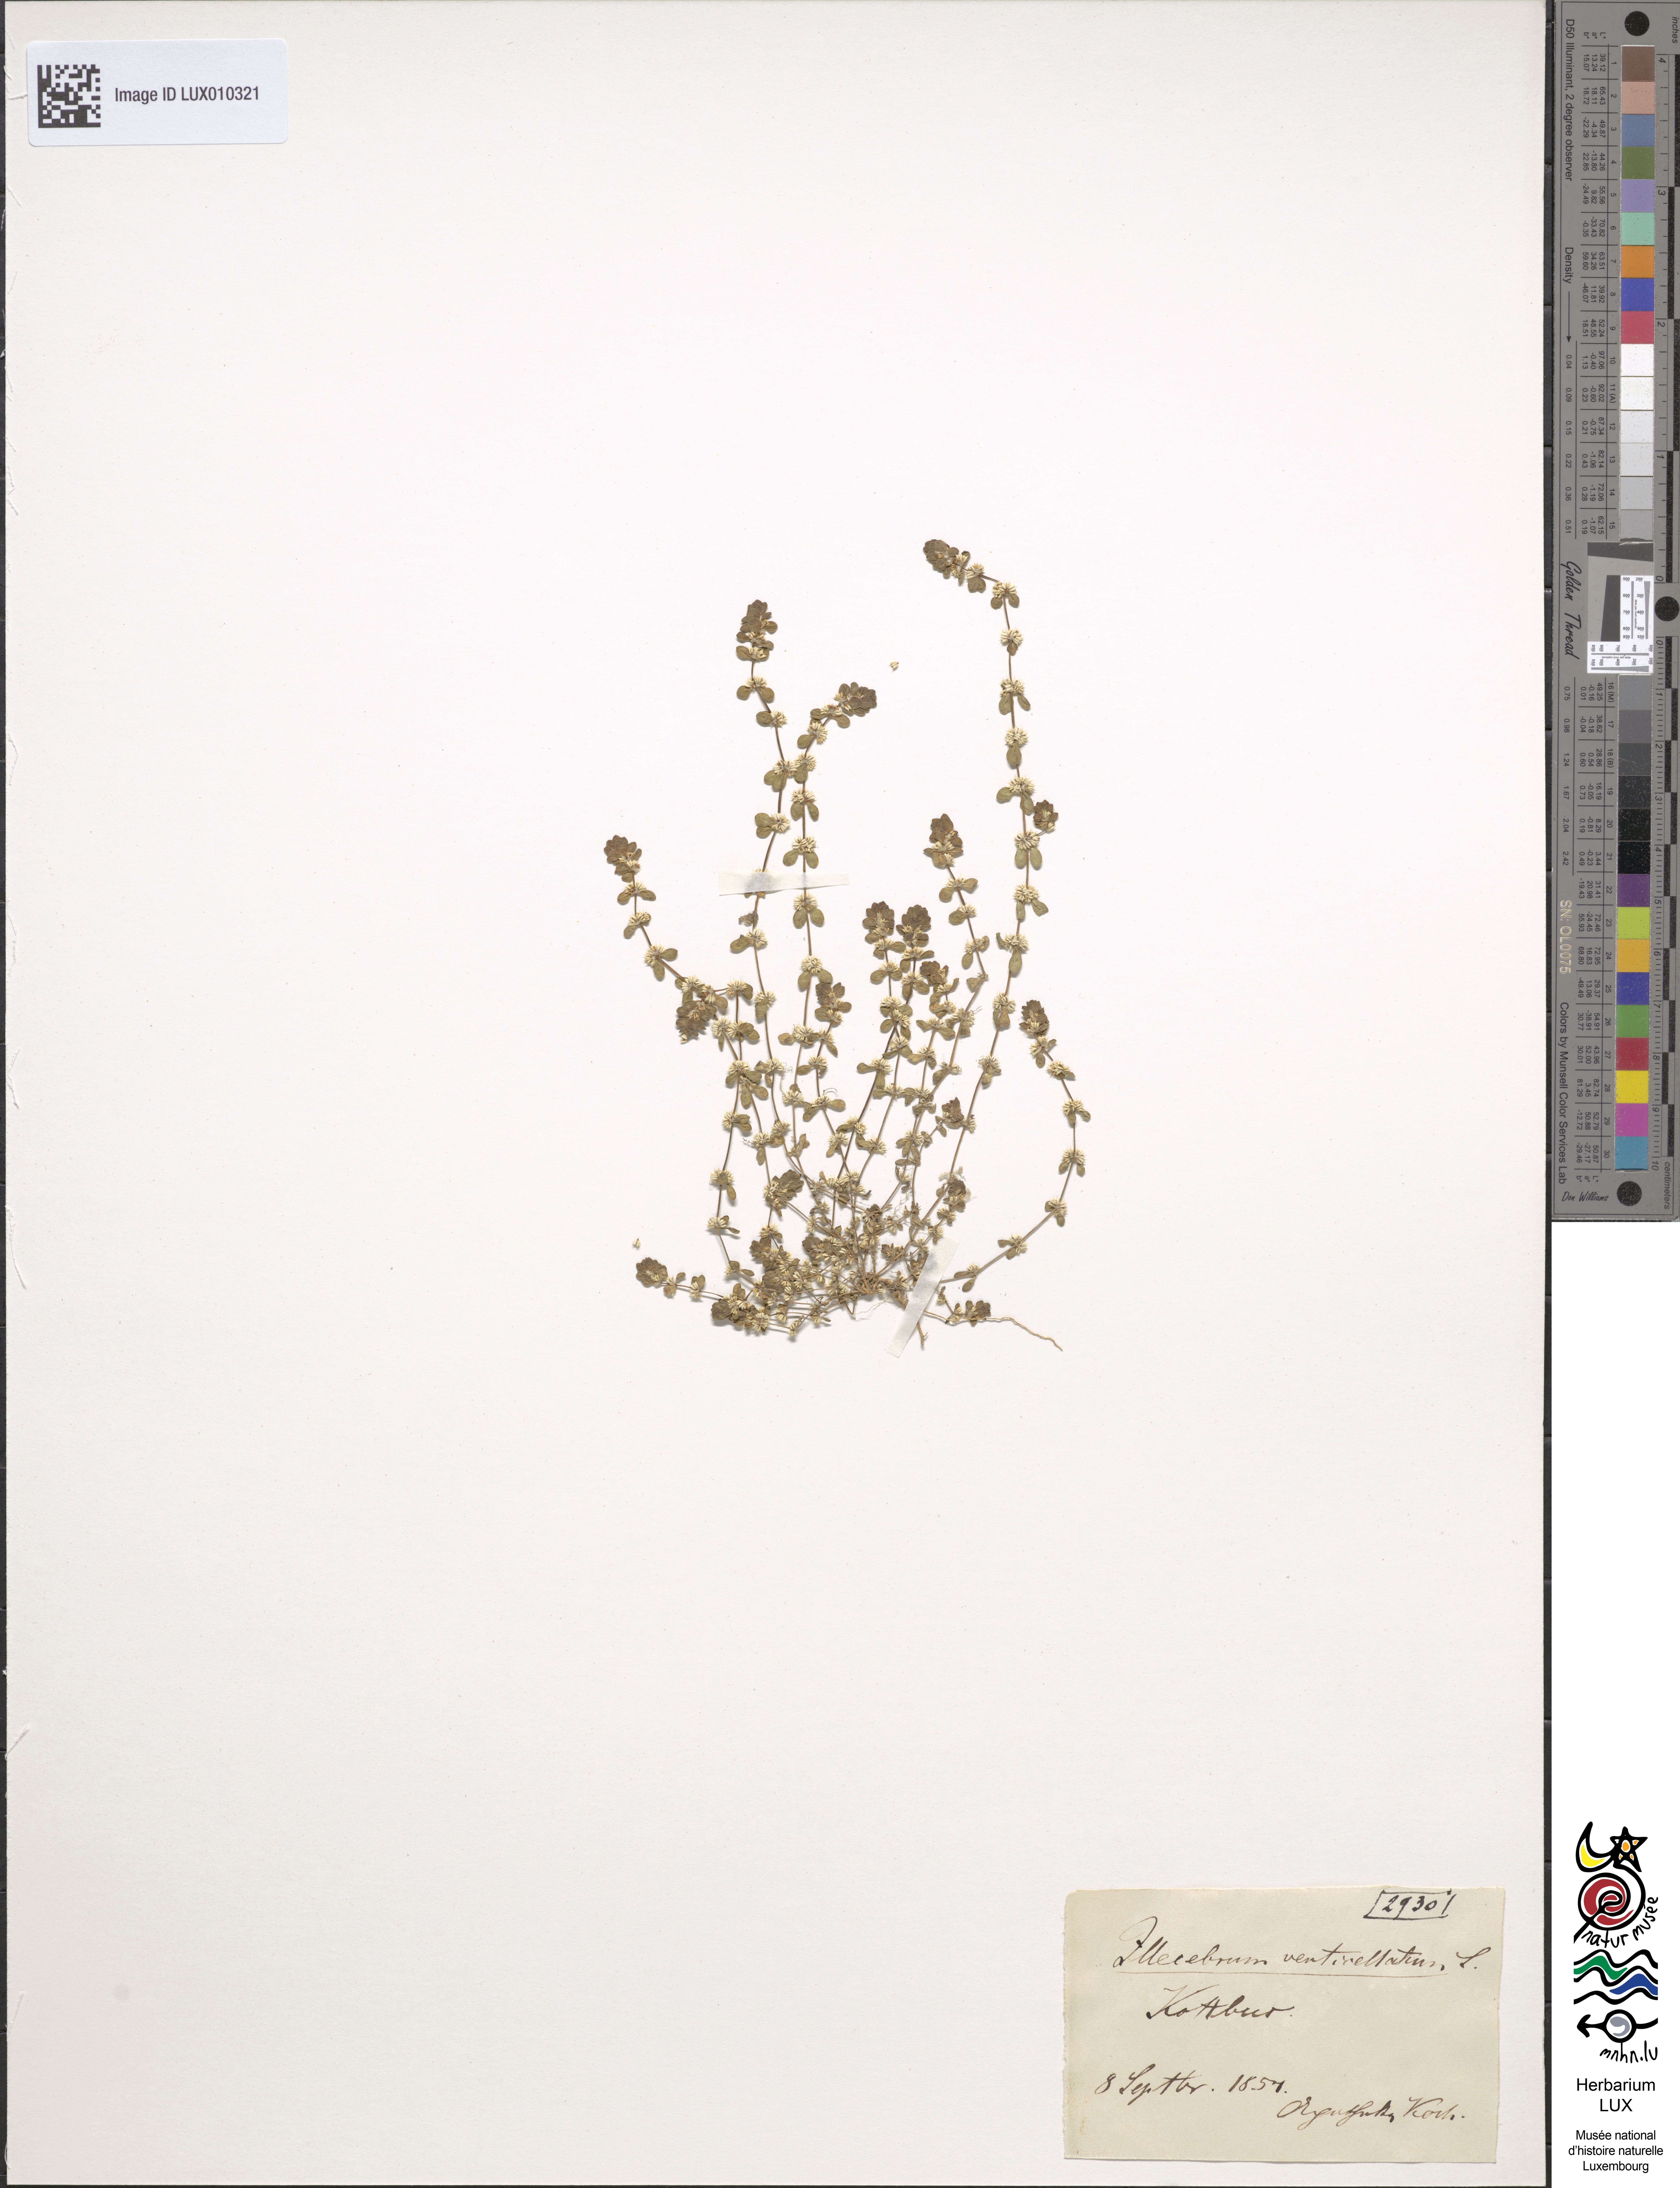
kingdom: Plantae
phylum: Tracheophyta
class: Magnoliopsida
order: Caryophyllales
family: Caryophyllaceae
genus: Illecebrum
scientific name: Illecebrum verticillatum
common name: Coral necklace
